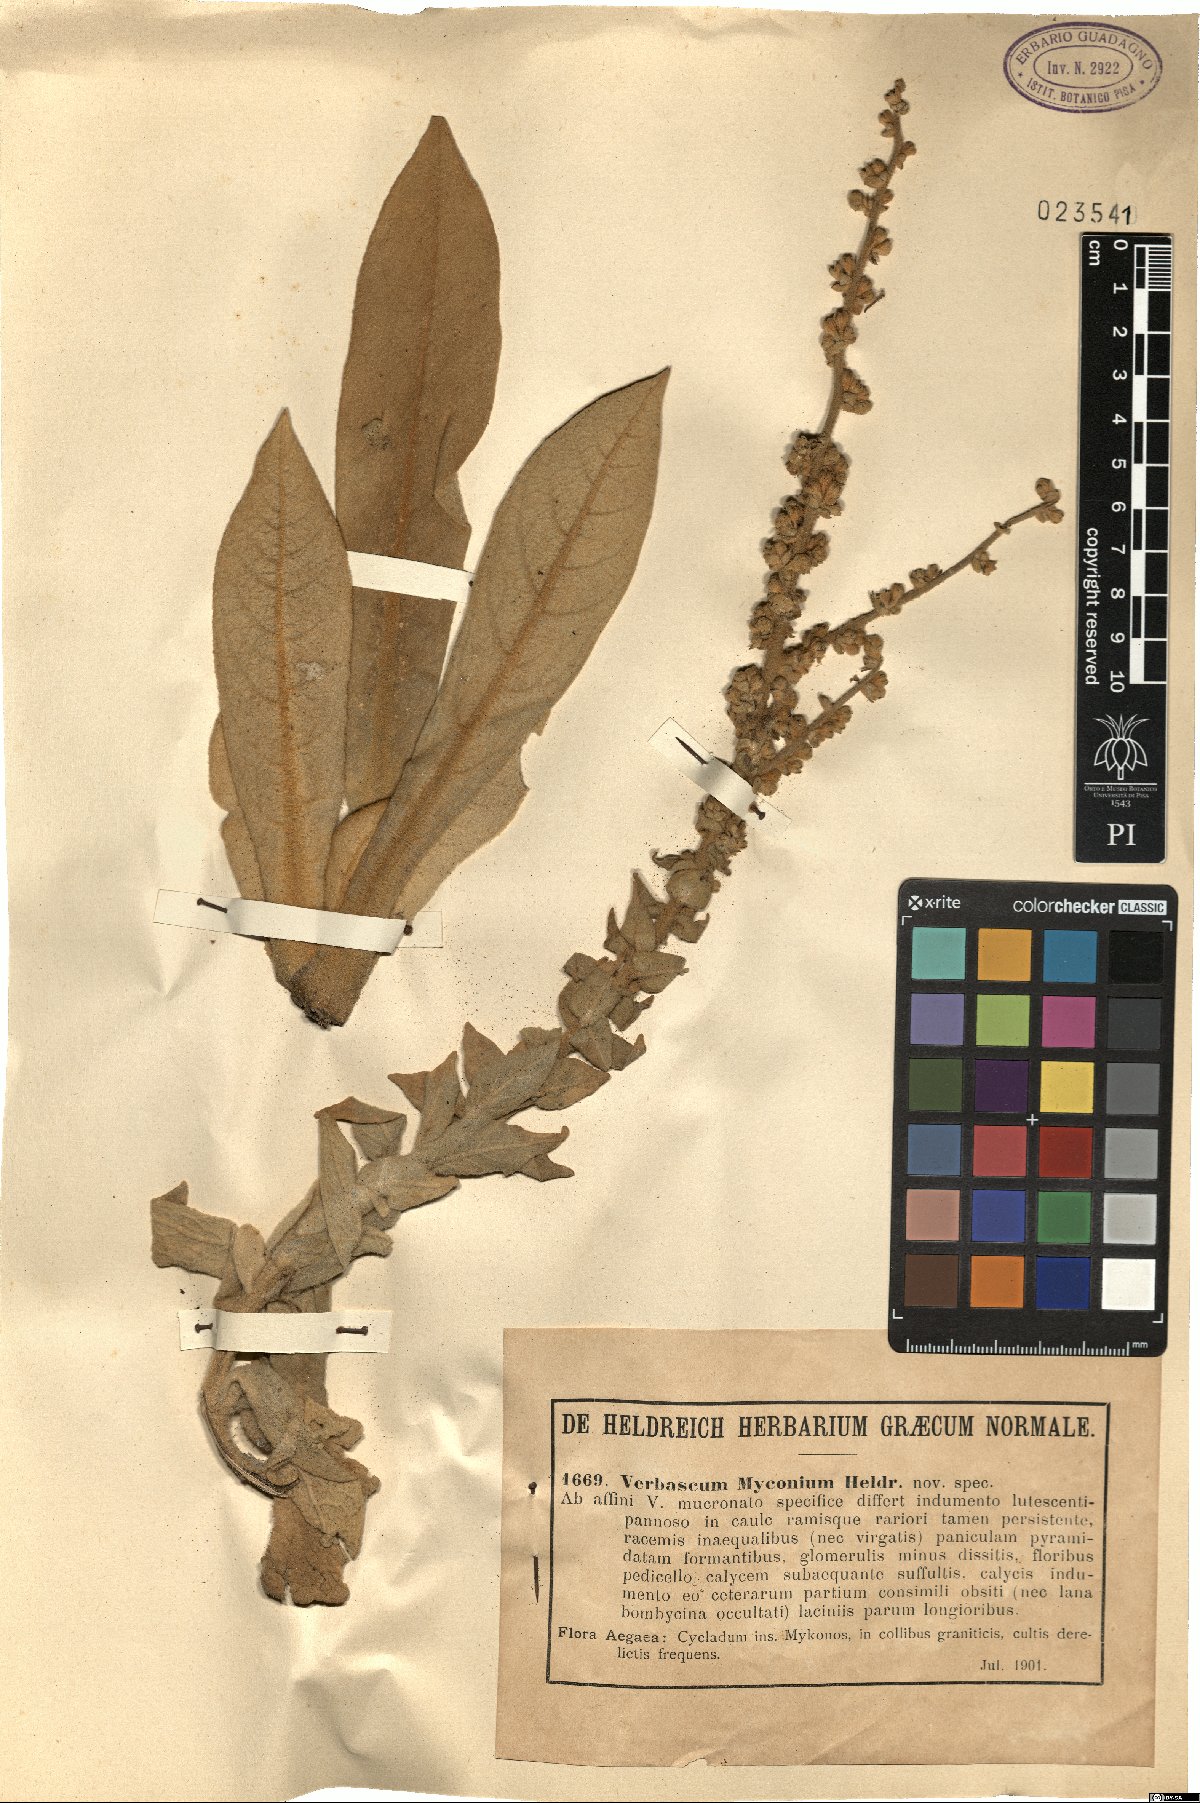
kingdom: Plantae
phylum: Tracheophyta
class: Magnoliopsida
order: Lamiales
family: Scrophulariaceae
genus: Verbascum
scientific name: Verbascum lasianthum
